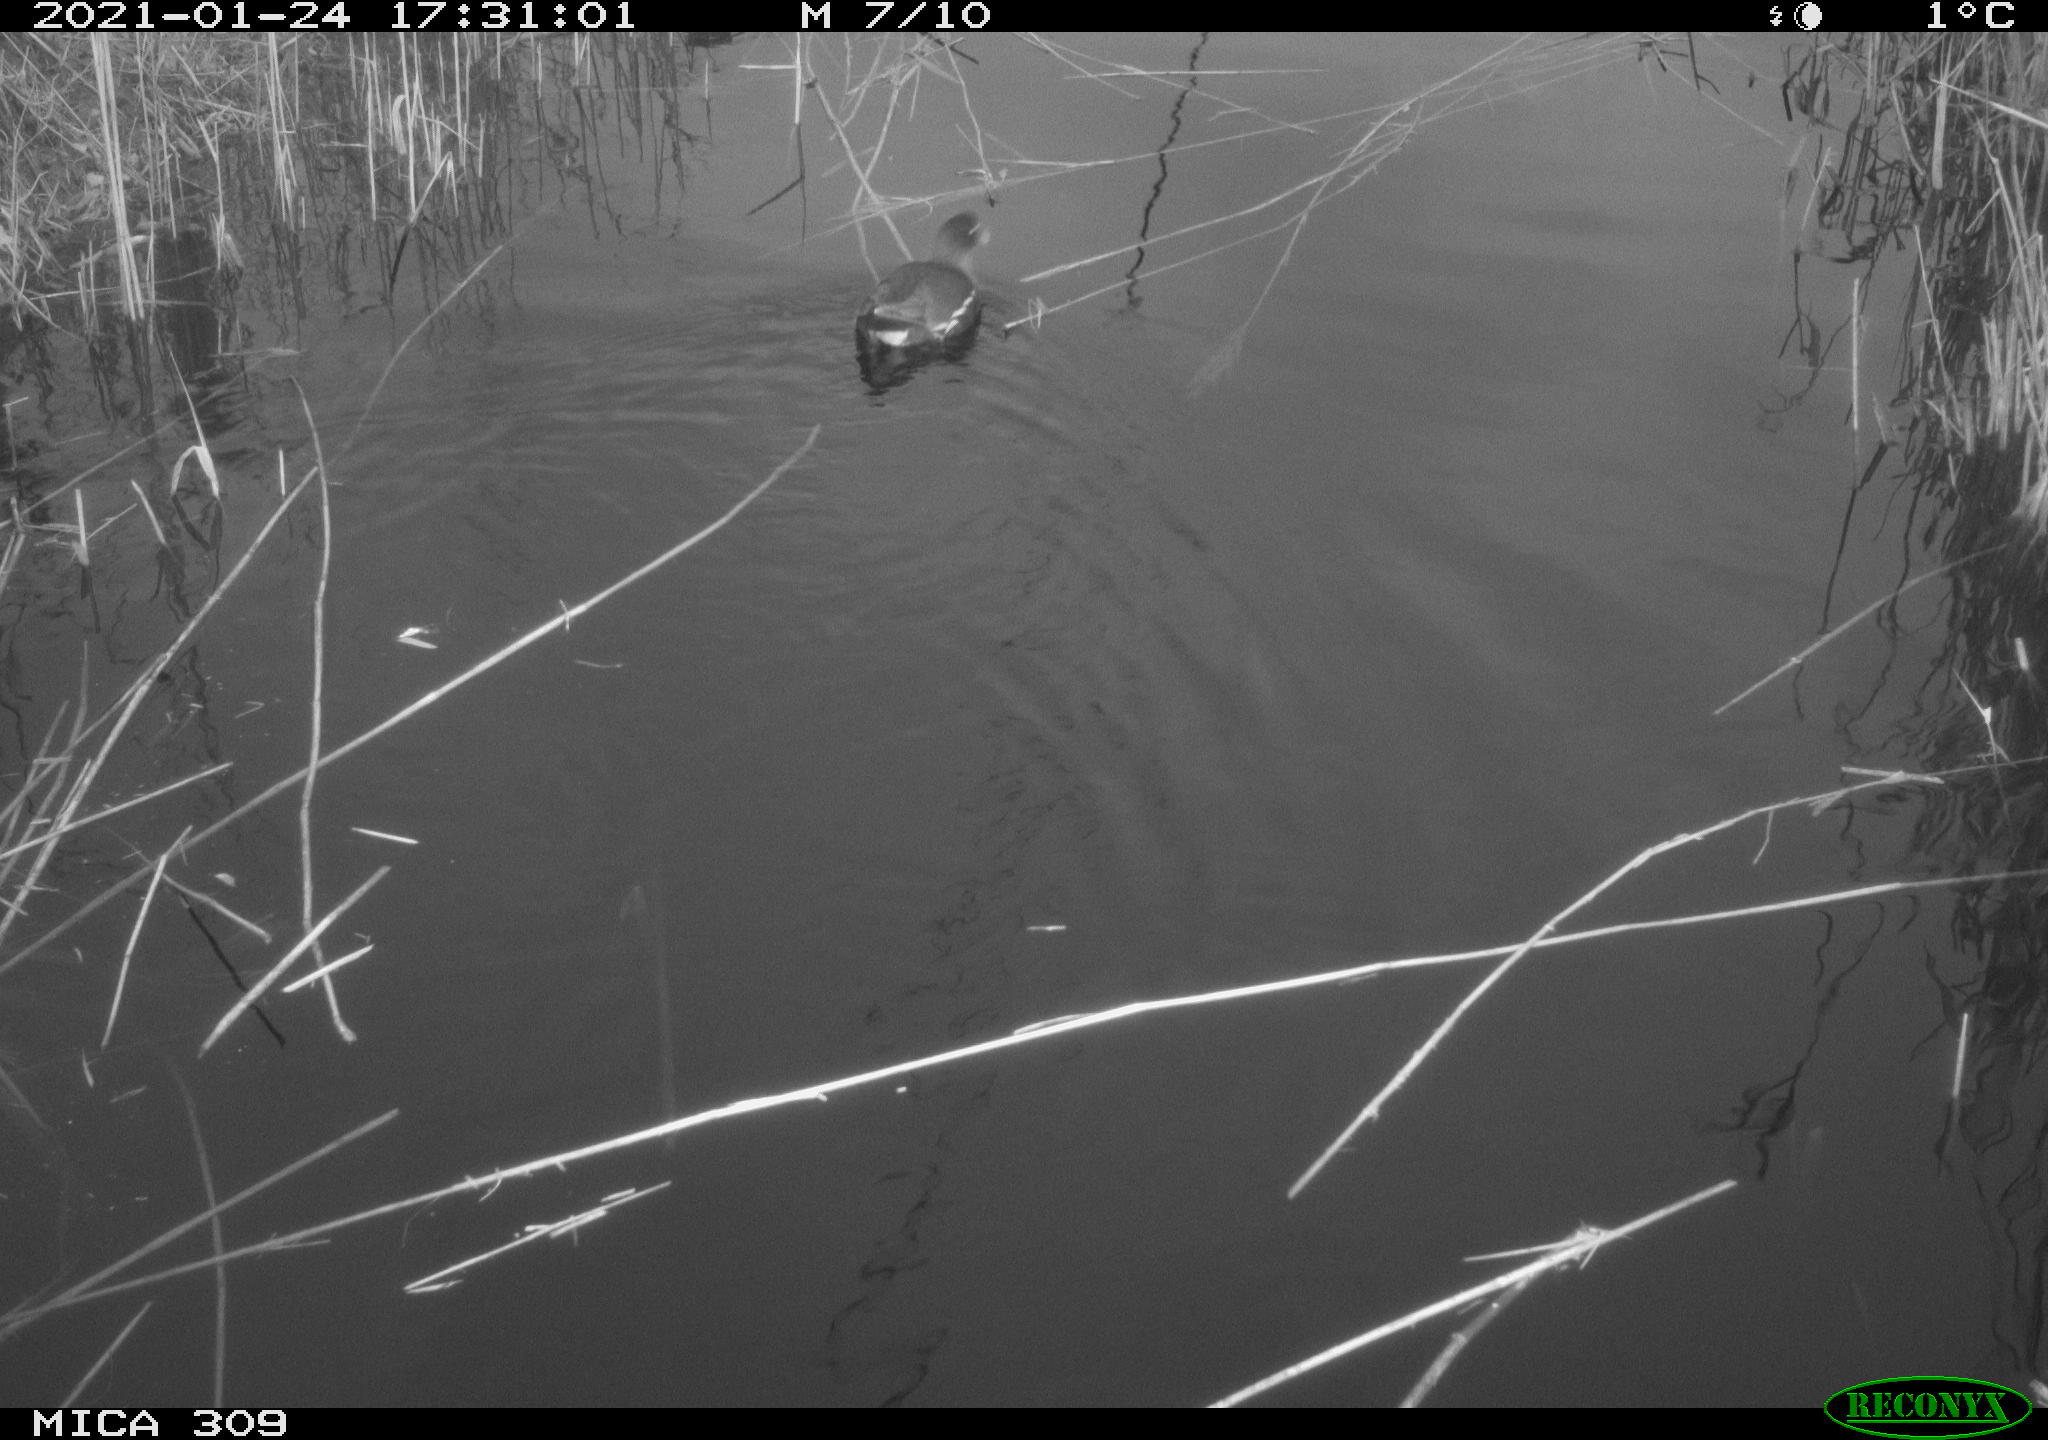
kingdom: Animalia
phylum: Chordata
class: Aves
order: Gruiformes
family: Rallidae
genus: Gallinula
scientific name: Gallinula chloropus
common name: Common moorhen
